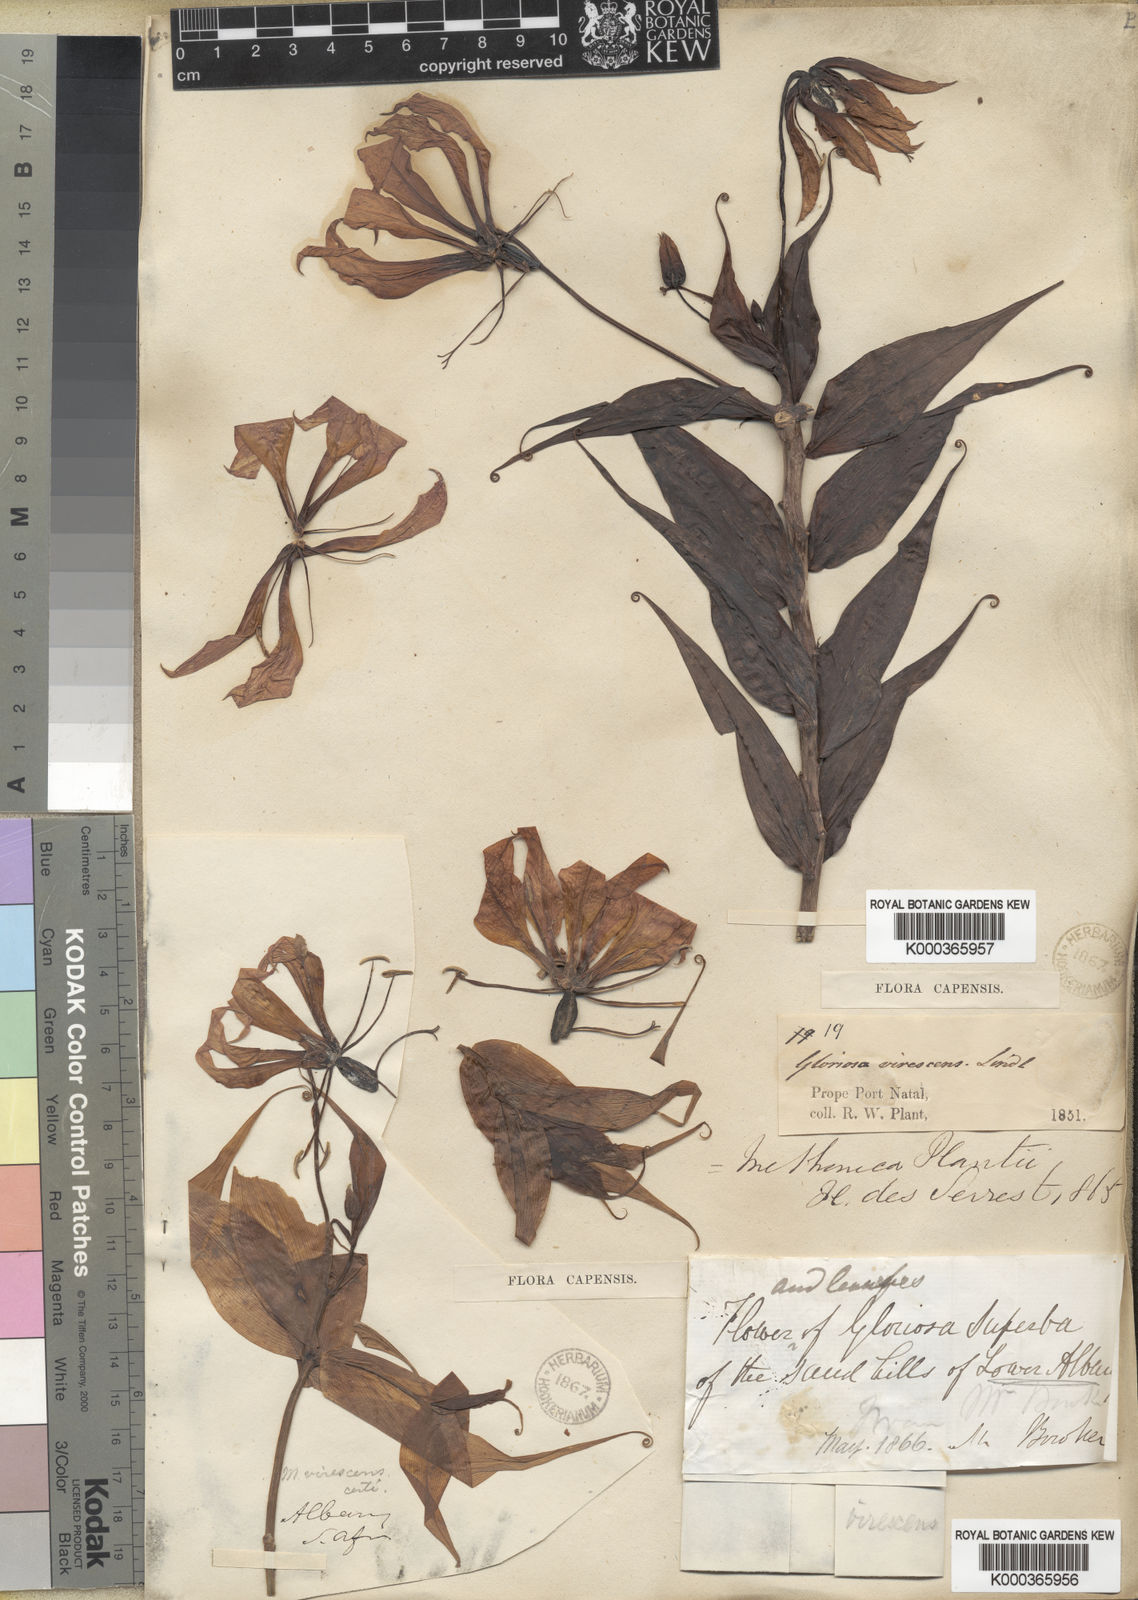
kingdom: Plantae
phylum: Tracheophyta
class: Liliopsida
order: Liliales
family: Colchicaceae
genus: Gloriosa
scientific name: Gloriosa simplex
